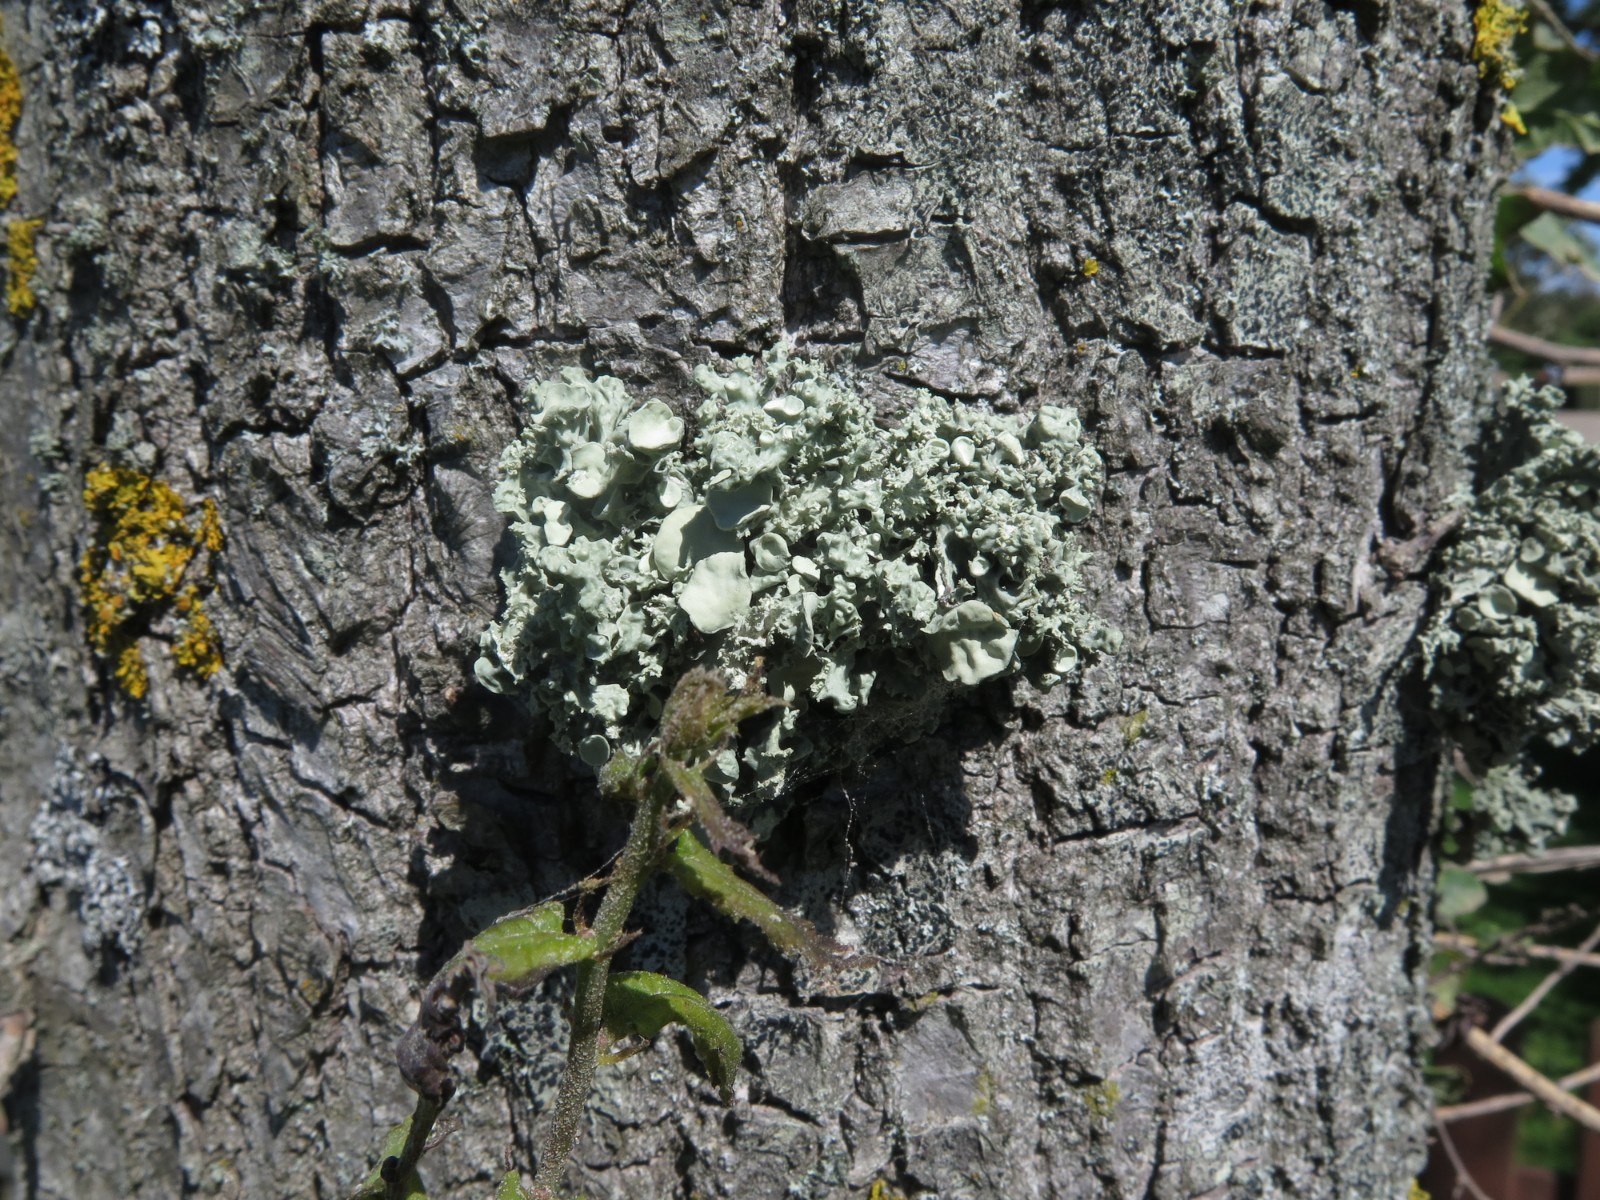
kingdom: Fungi
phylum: Ascomycota
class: Lecanoromycetes
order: Lecanorales
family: Ramalinaceae
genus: Ramalina
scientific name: Ramalina fastigiata
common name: tue-grenlav
